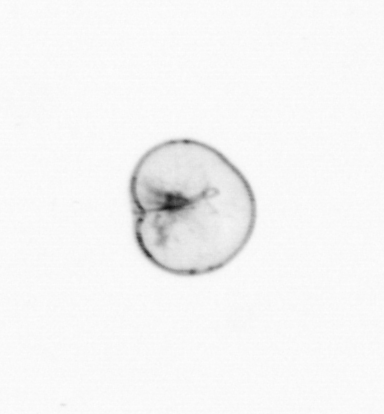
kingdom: Chromista
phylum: Myzozoa
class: Dinophyceae
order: Noctilucales
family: Noctilucaceae
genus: Noctiluca
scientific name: Noctiluca scintillans
